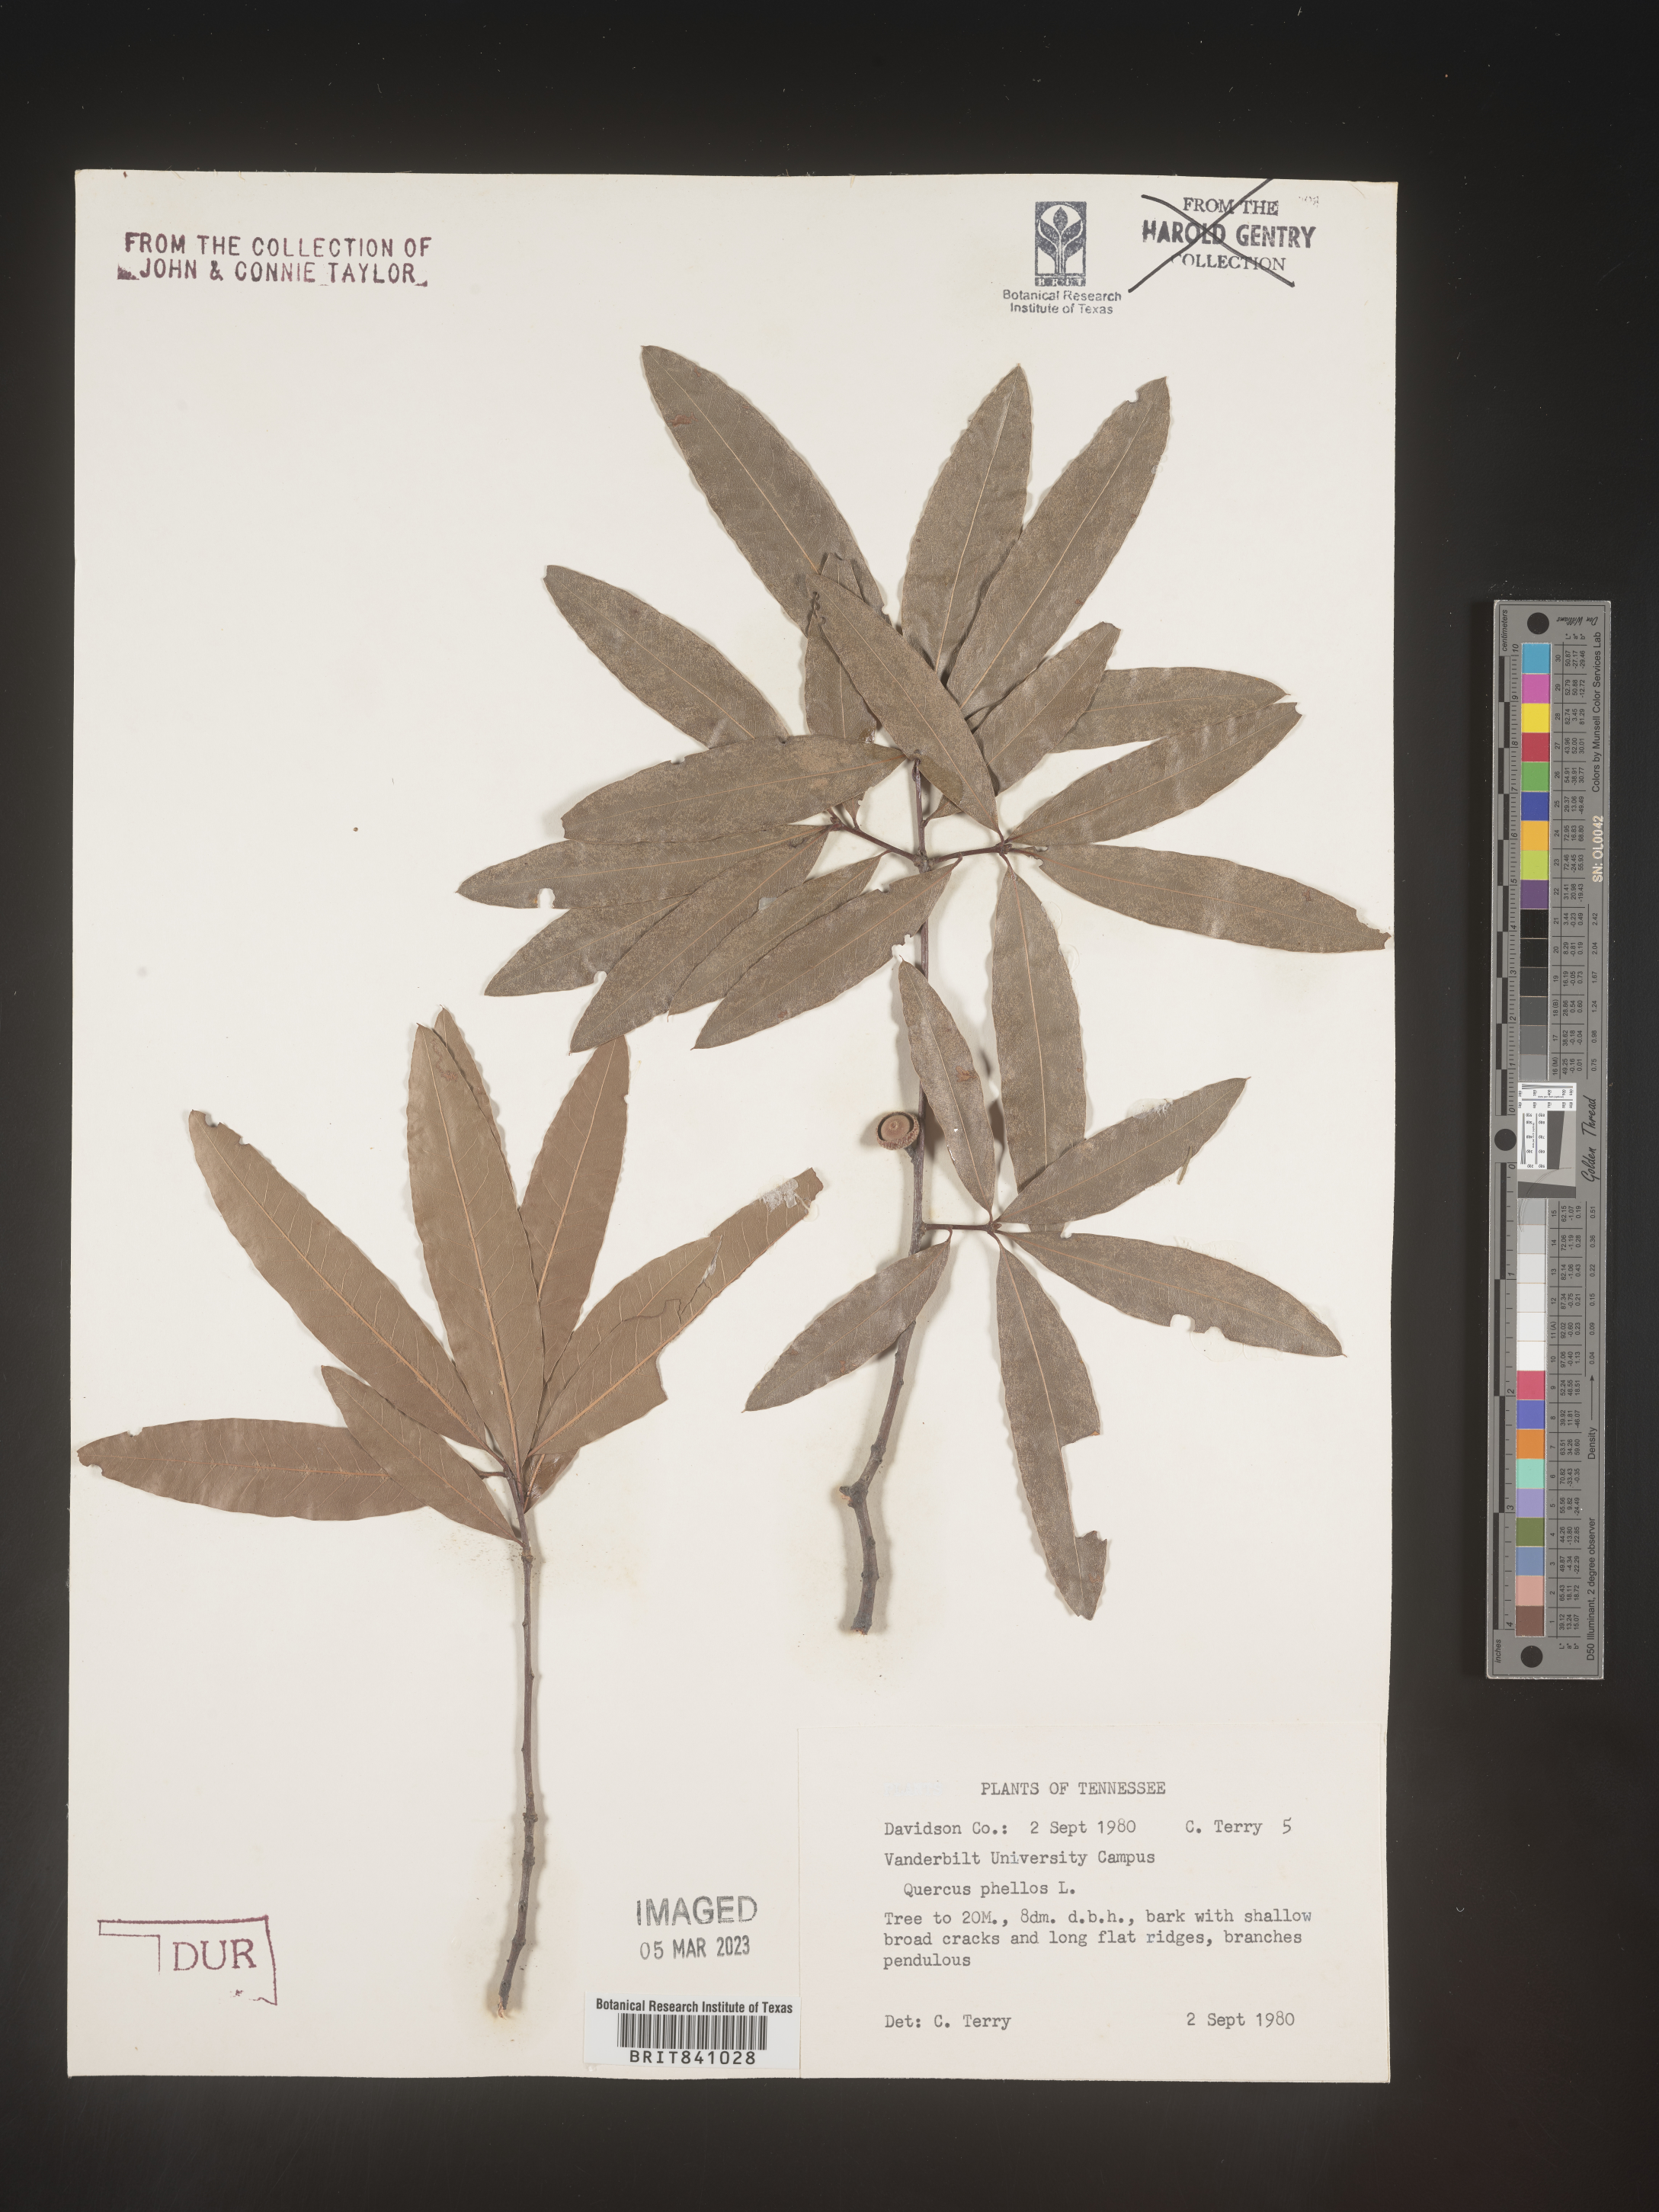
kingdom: Plantae
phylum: Tracheophyta
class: Magnoliopsida
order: Fagales
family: Fagaceae
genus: Quercus
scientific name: Quercus phellos
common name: Willow oak
